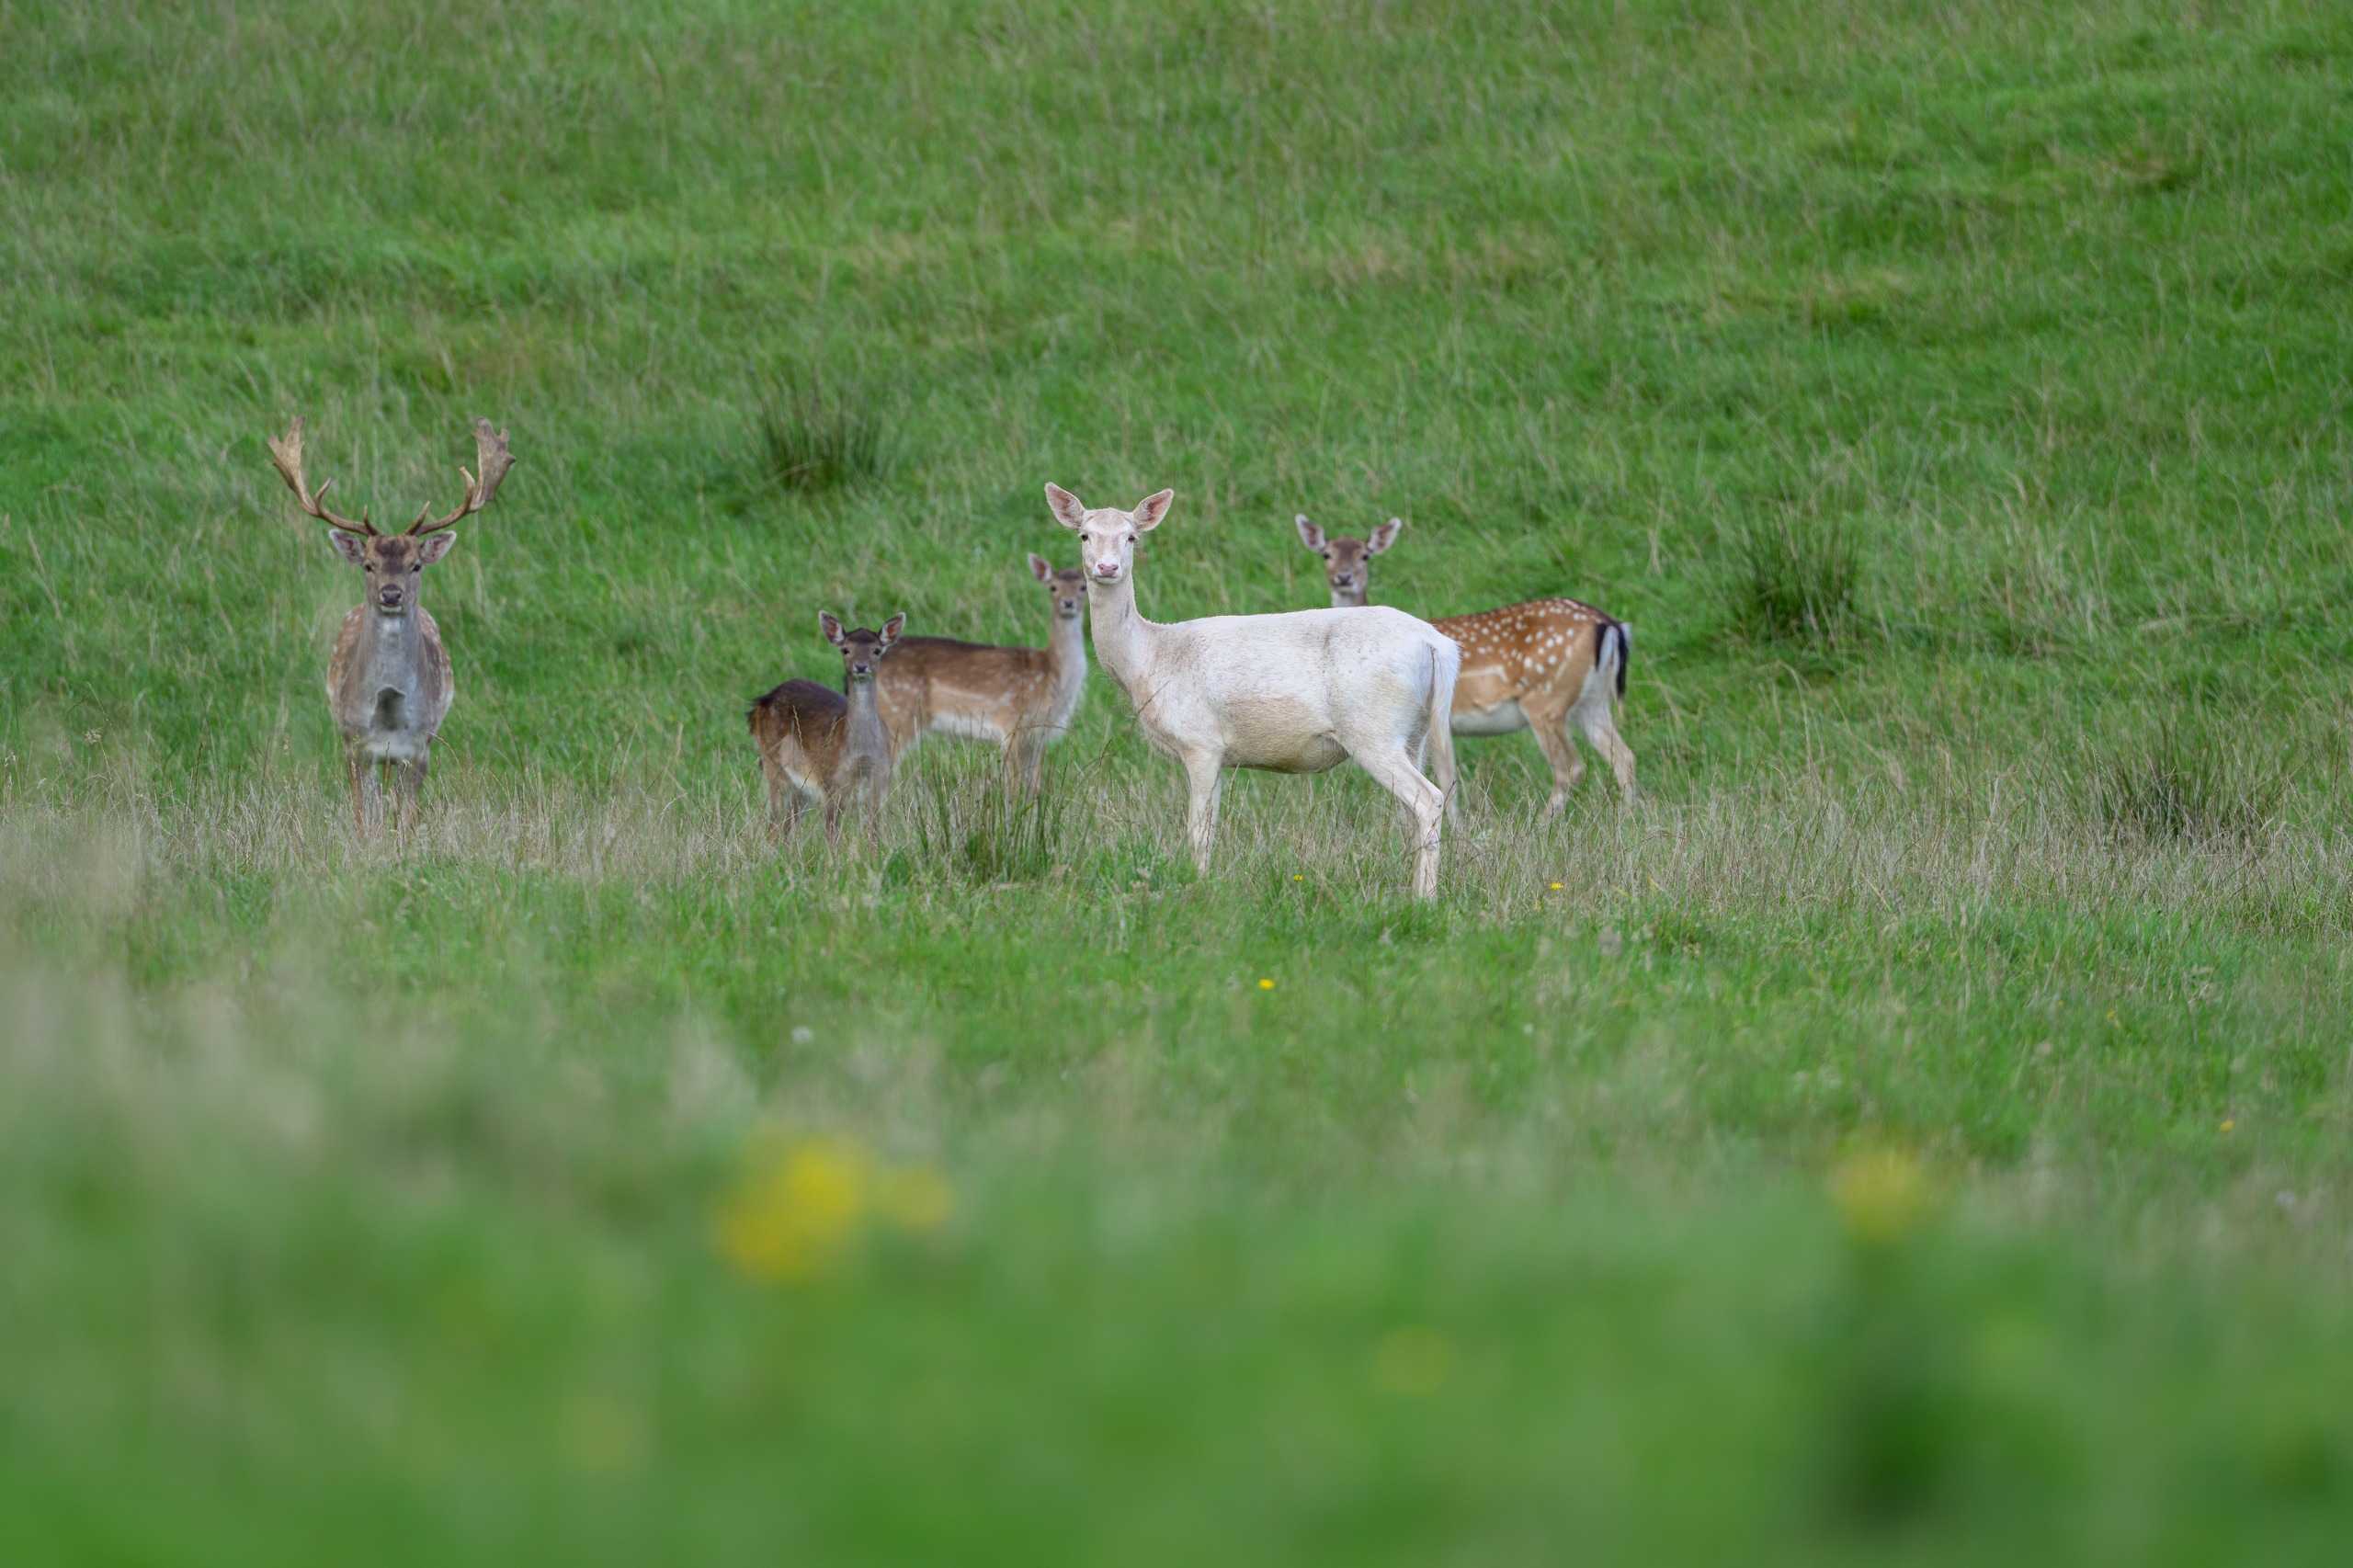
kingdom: Animalia
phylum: Chordata
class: Mammalia
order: Artiodactyla
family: Cervidae
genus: Dama
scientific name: Dama dama
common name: Dådyr
